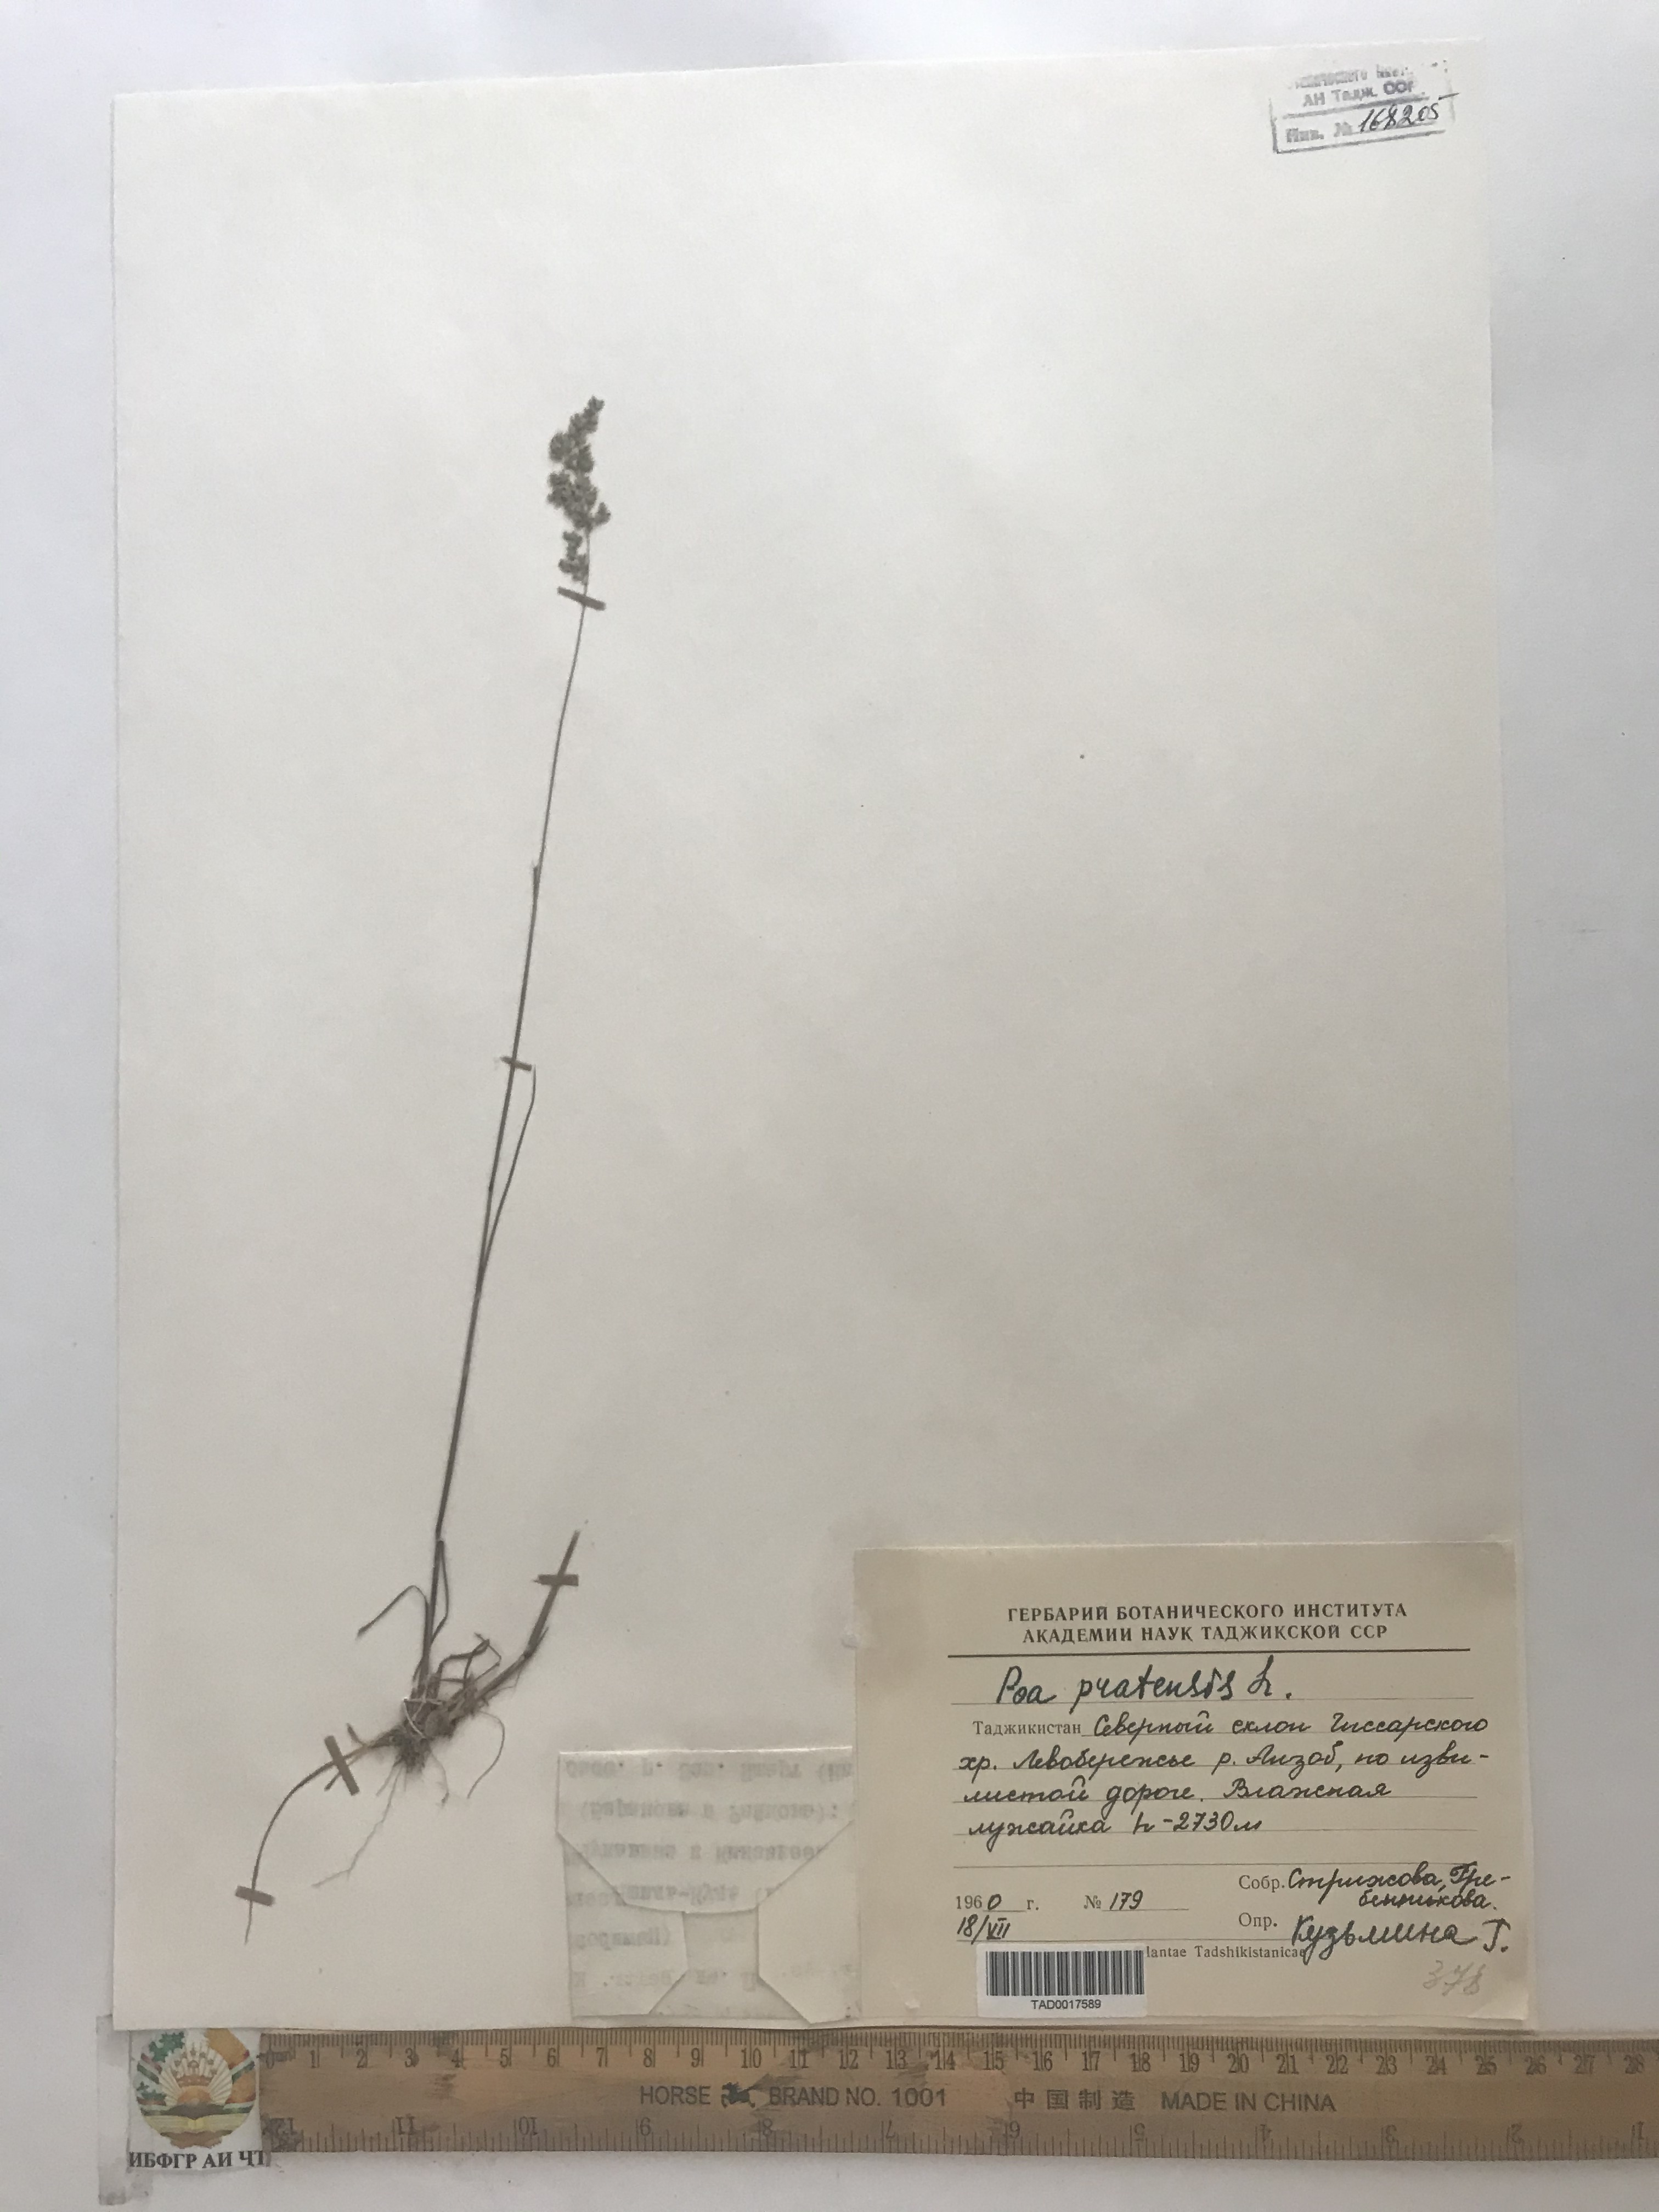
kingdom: Plantae
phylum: Tracheophyta
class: Liliopsida
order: Poales
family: Poaceae
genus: Poa
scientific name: Poa pratensis
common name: Kentucky bluegrass
